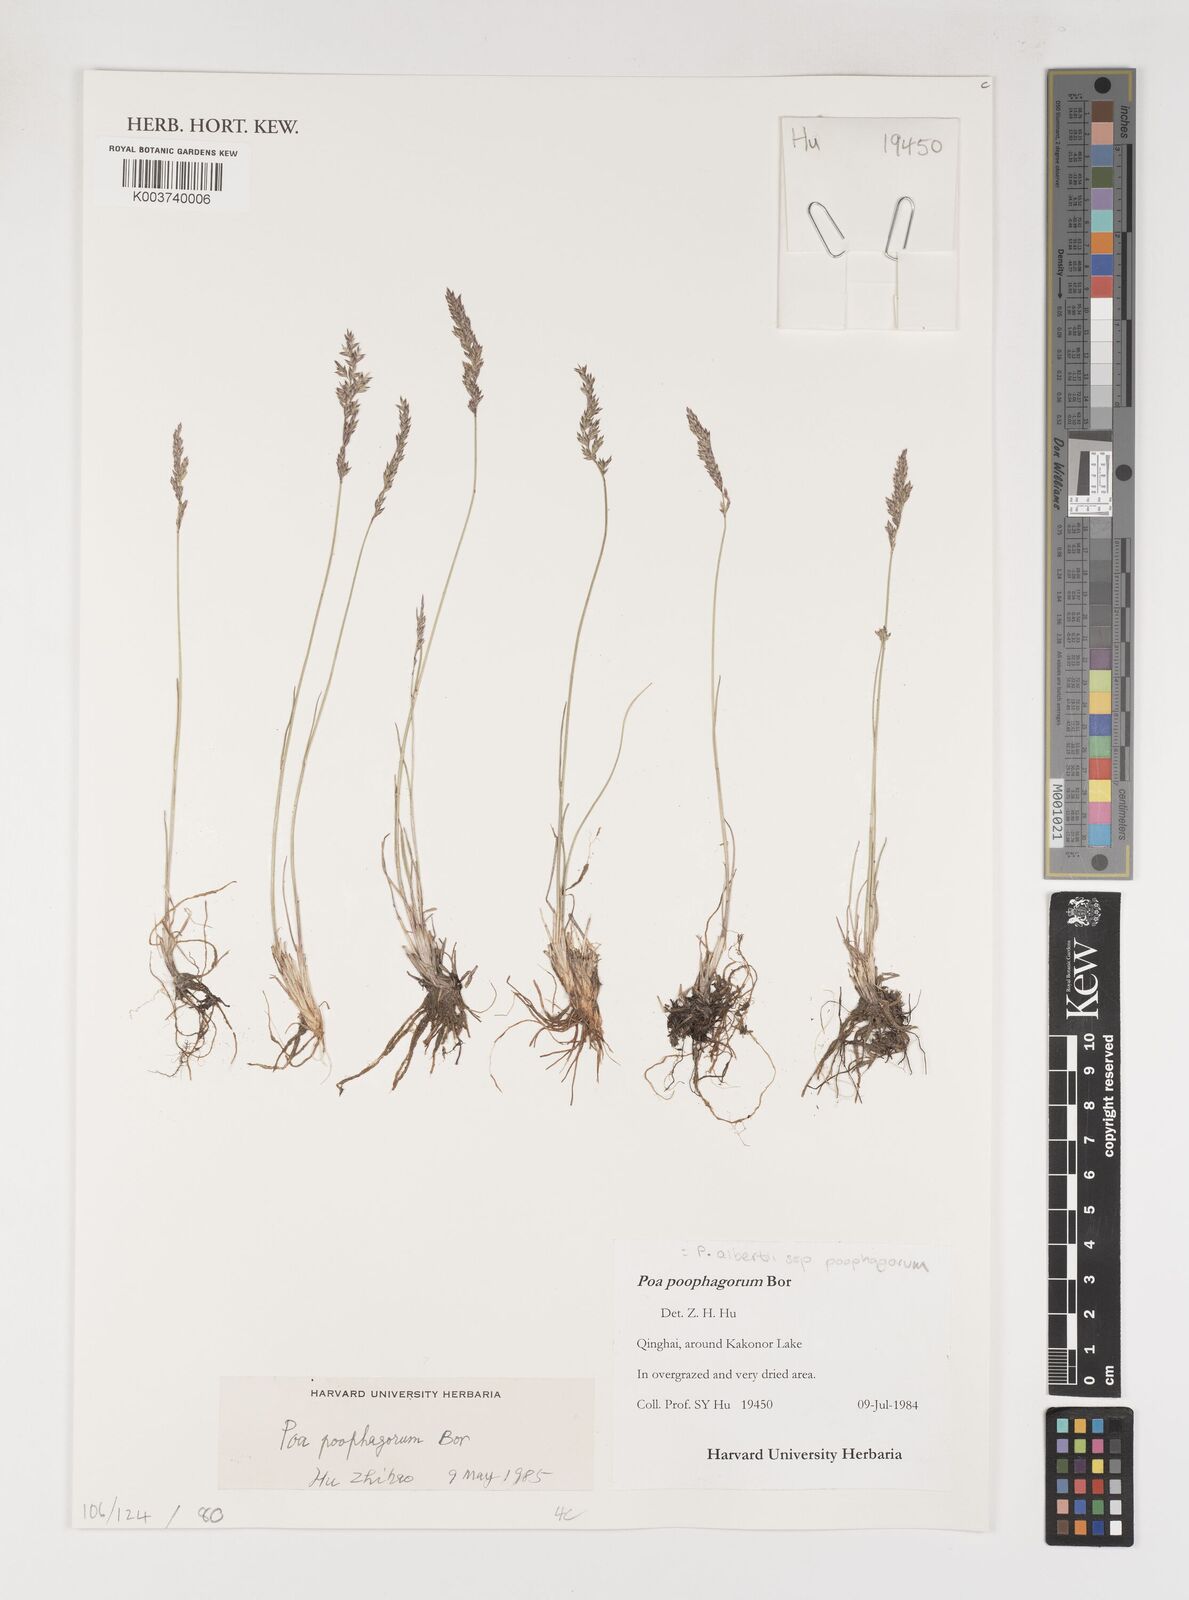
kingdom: Plantae
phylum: Tracheophyta
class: Liliopsida
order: Poales
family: Poaceae
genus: Poa
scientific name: Poa alberti
